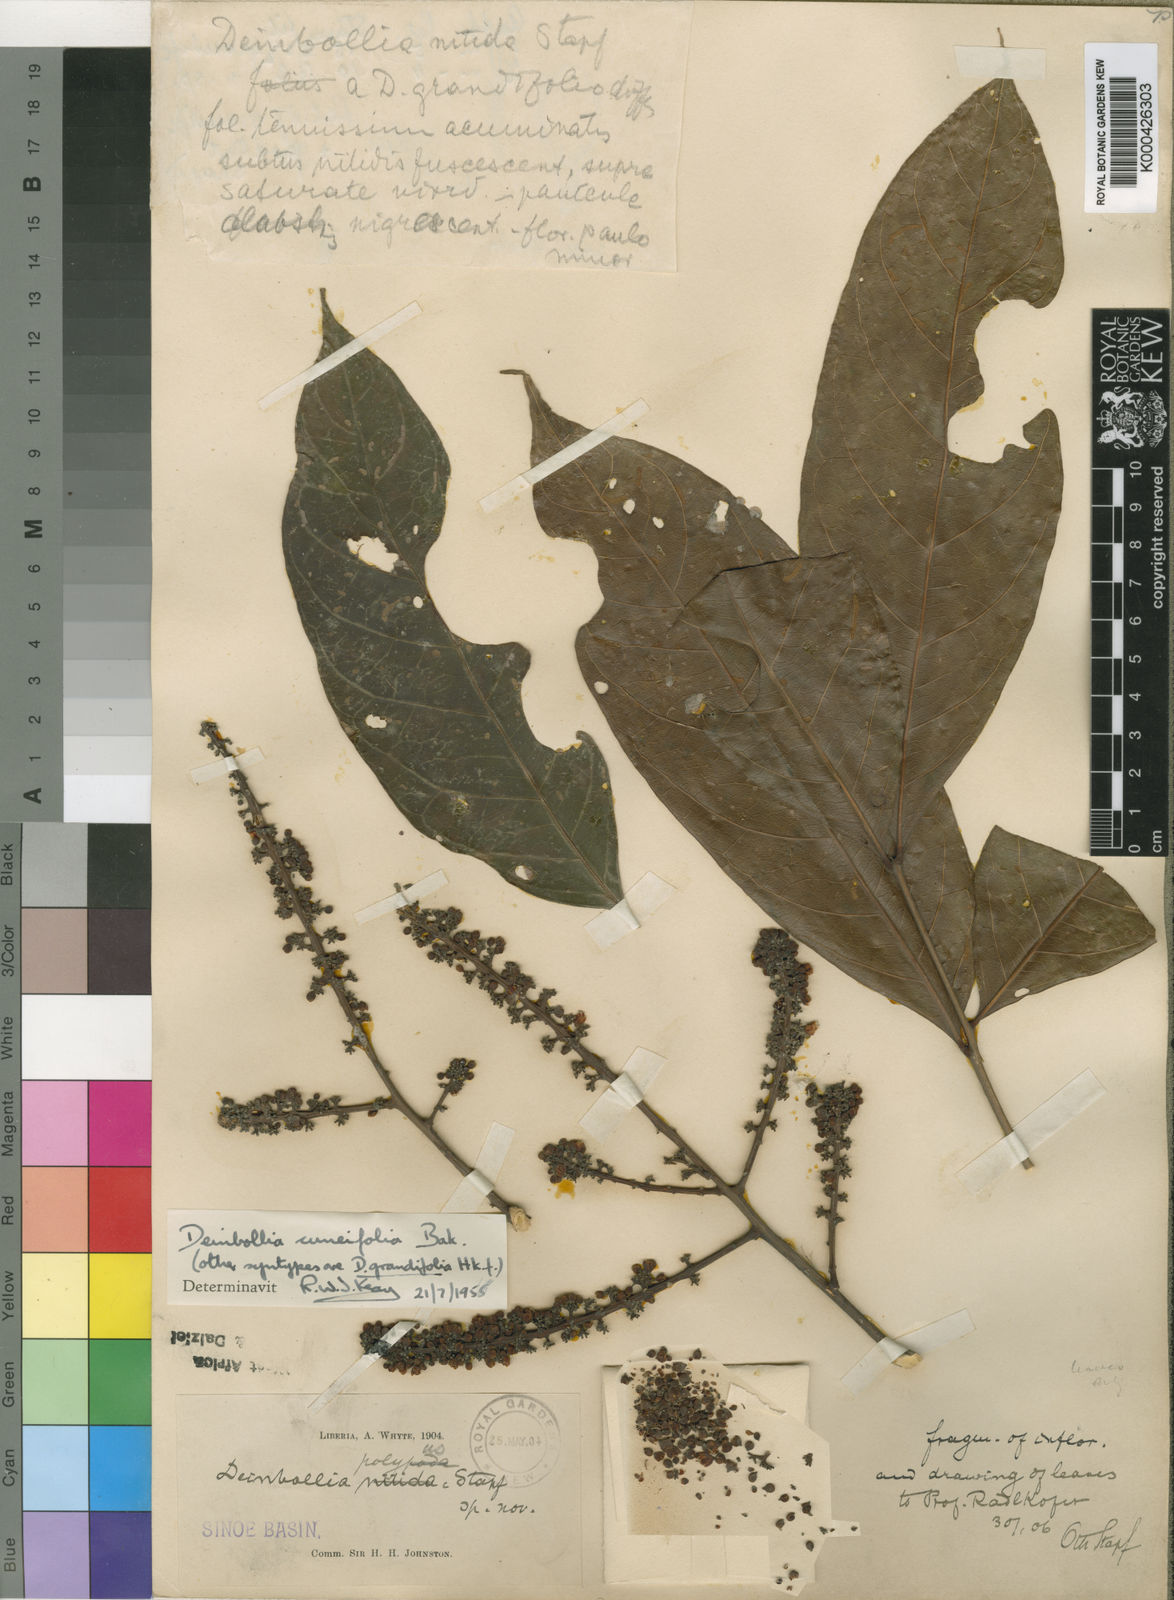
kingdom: Plantae
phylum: Tracheophyta
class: Magnoliopsida
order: Sapindales
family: Sapindaceae
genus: Deinbollia
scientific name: Deinbollia grandifolia
